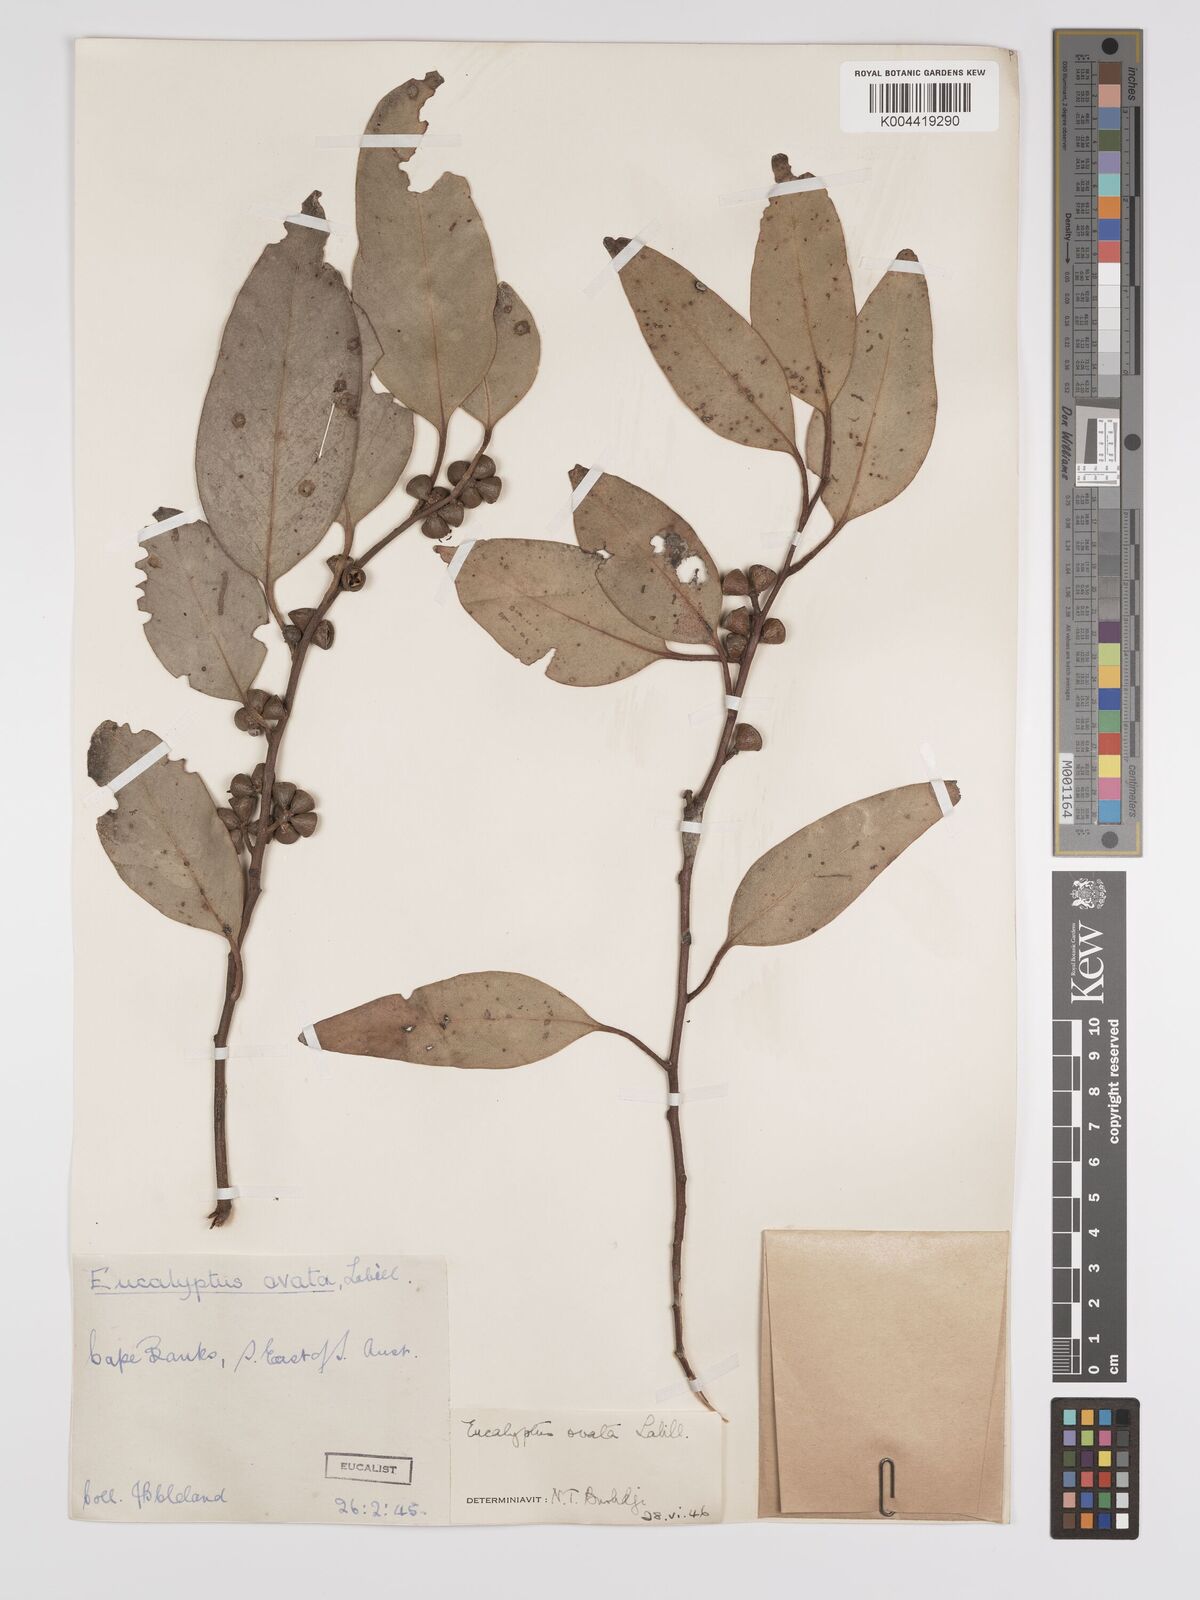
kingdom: Plantae
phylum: Tracheophyta
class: Magnoliopsida
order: Myrtales
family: Myrtaceae
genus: Eucalyptus
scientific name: Eucalyptus ovata
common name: Black-gum
